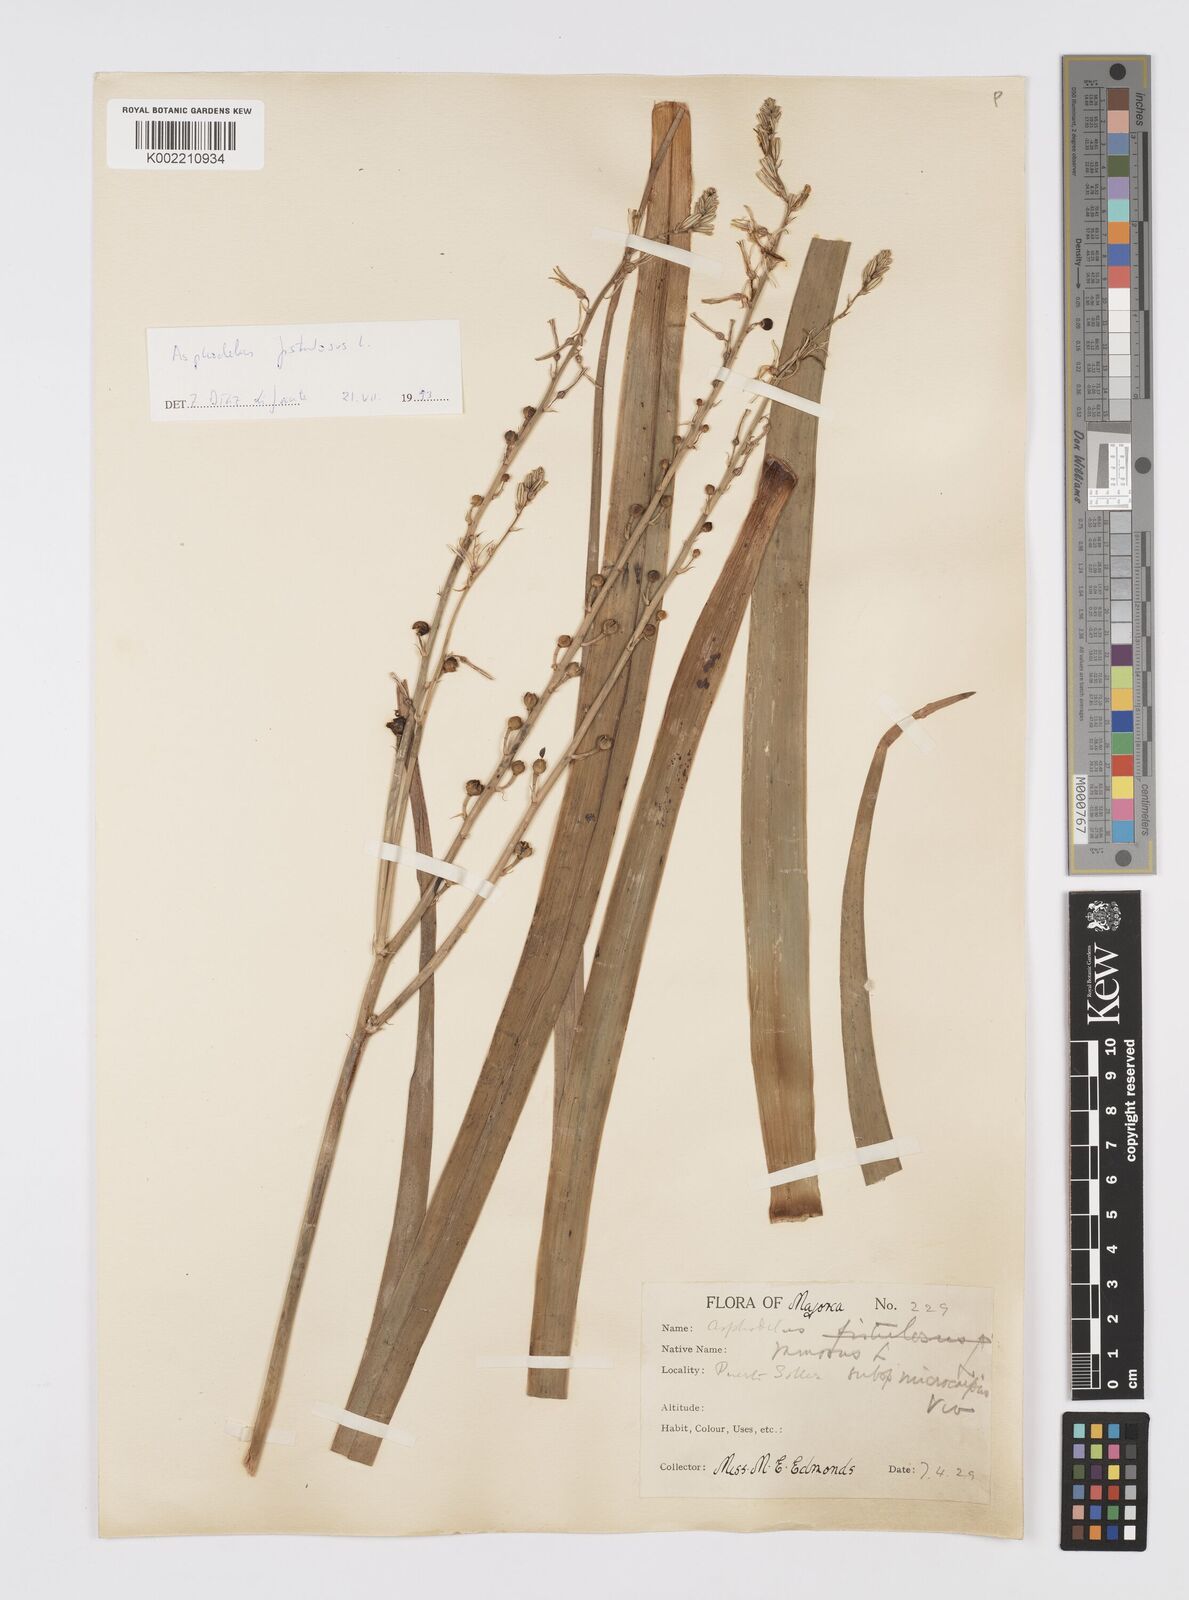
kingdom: Plantae
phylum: Tracheophyta
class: Liliopsida
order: Asparagales
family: Asphodelaceae
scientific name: Asphodelaceae
